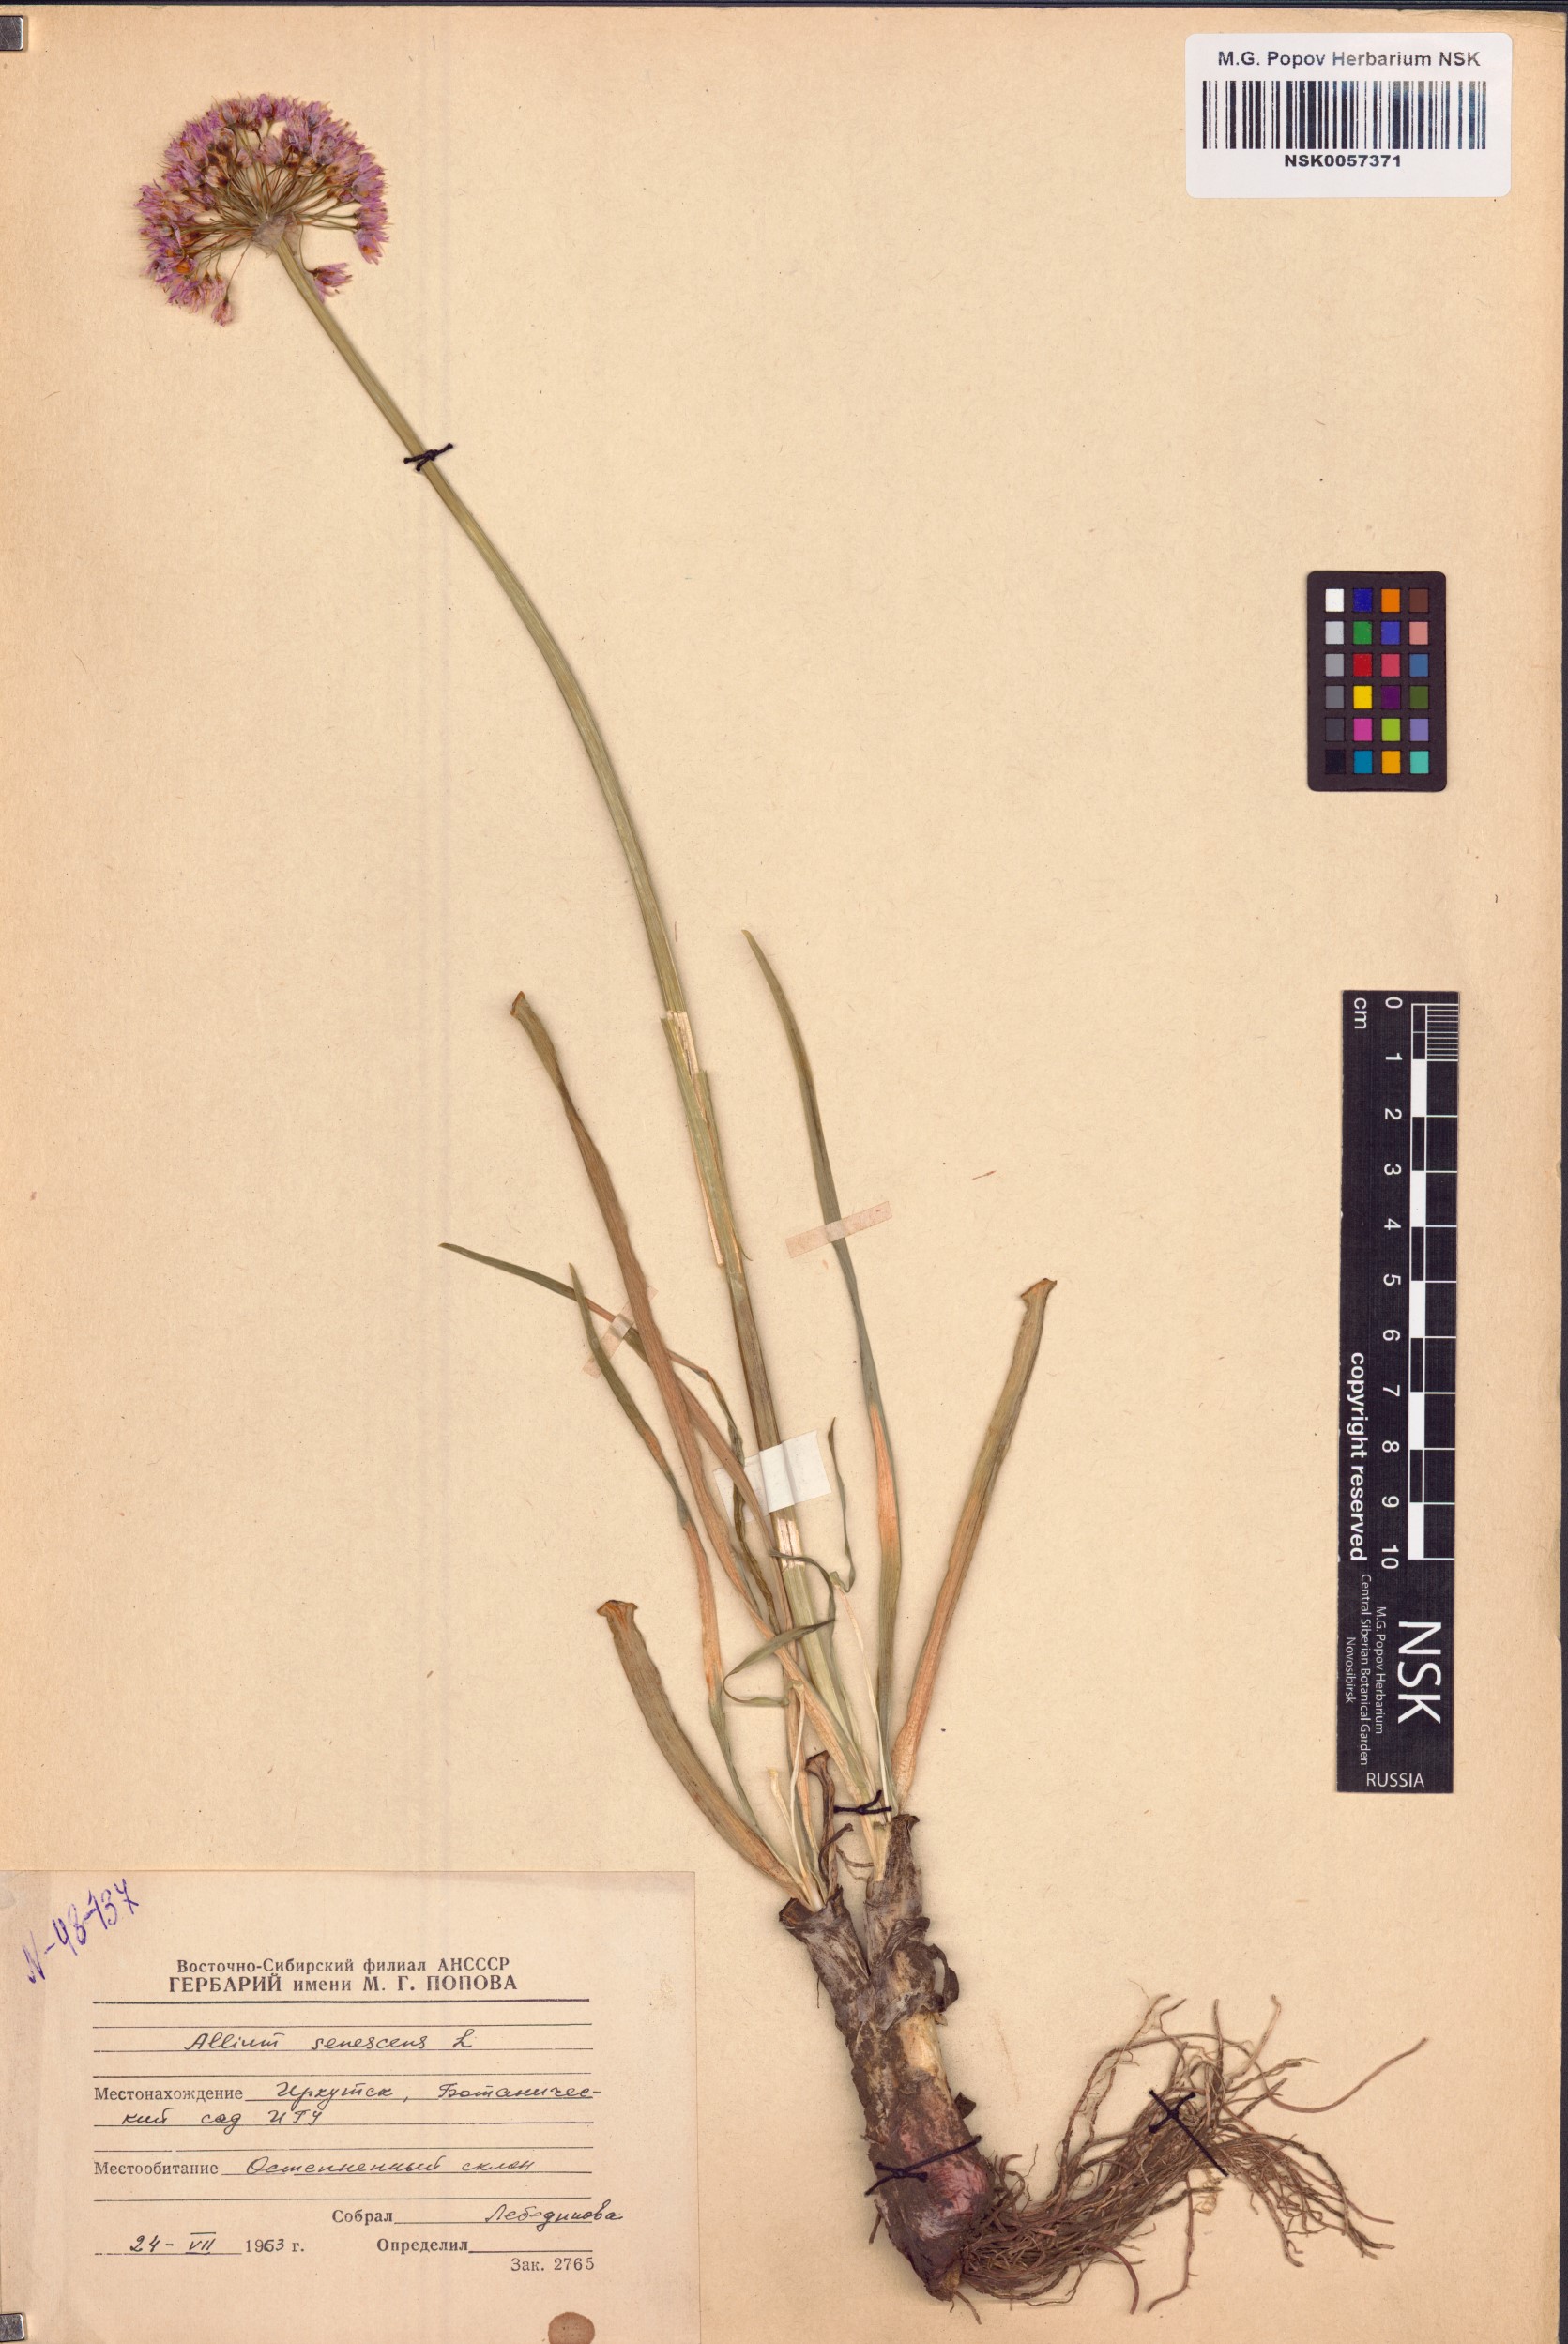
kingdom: Plantae
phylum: Tracheophyta
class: Liliopsida
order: Asparagales
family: Amaryllidaceae
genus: Allium
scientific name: Allium senescens
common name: German garlic
